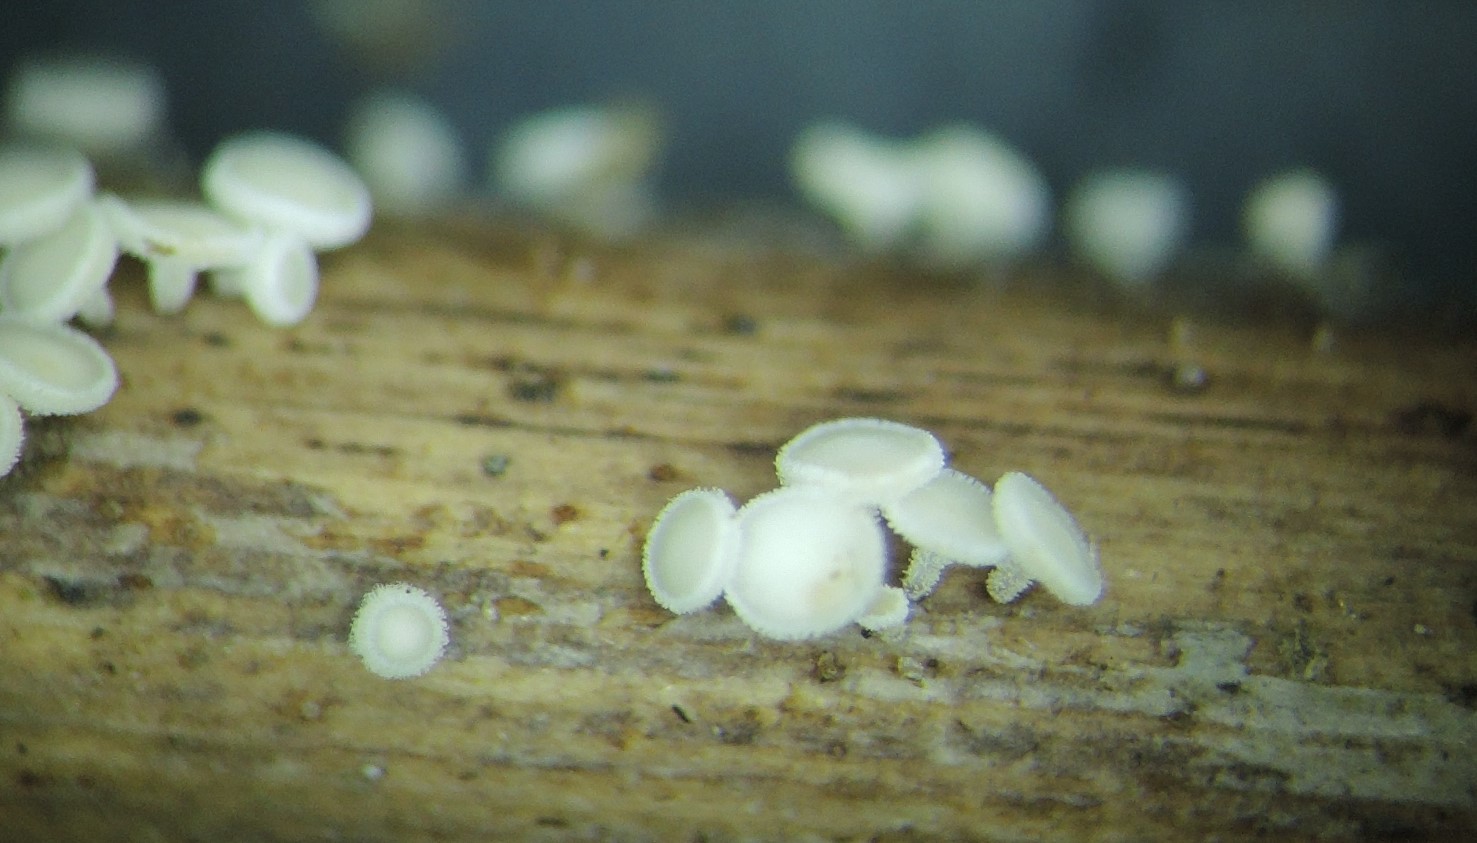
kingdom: Fungi
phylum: Ascomycota
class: Leotiomycetes
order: Helotiales
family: Lachnaceae
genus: Lachnum
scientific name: Lachnum tenuissimum
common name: spinkel frynseskive
